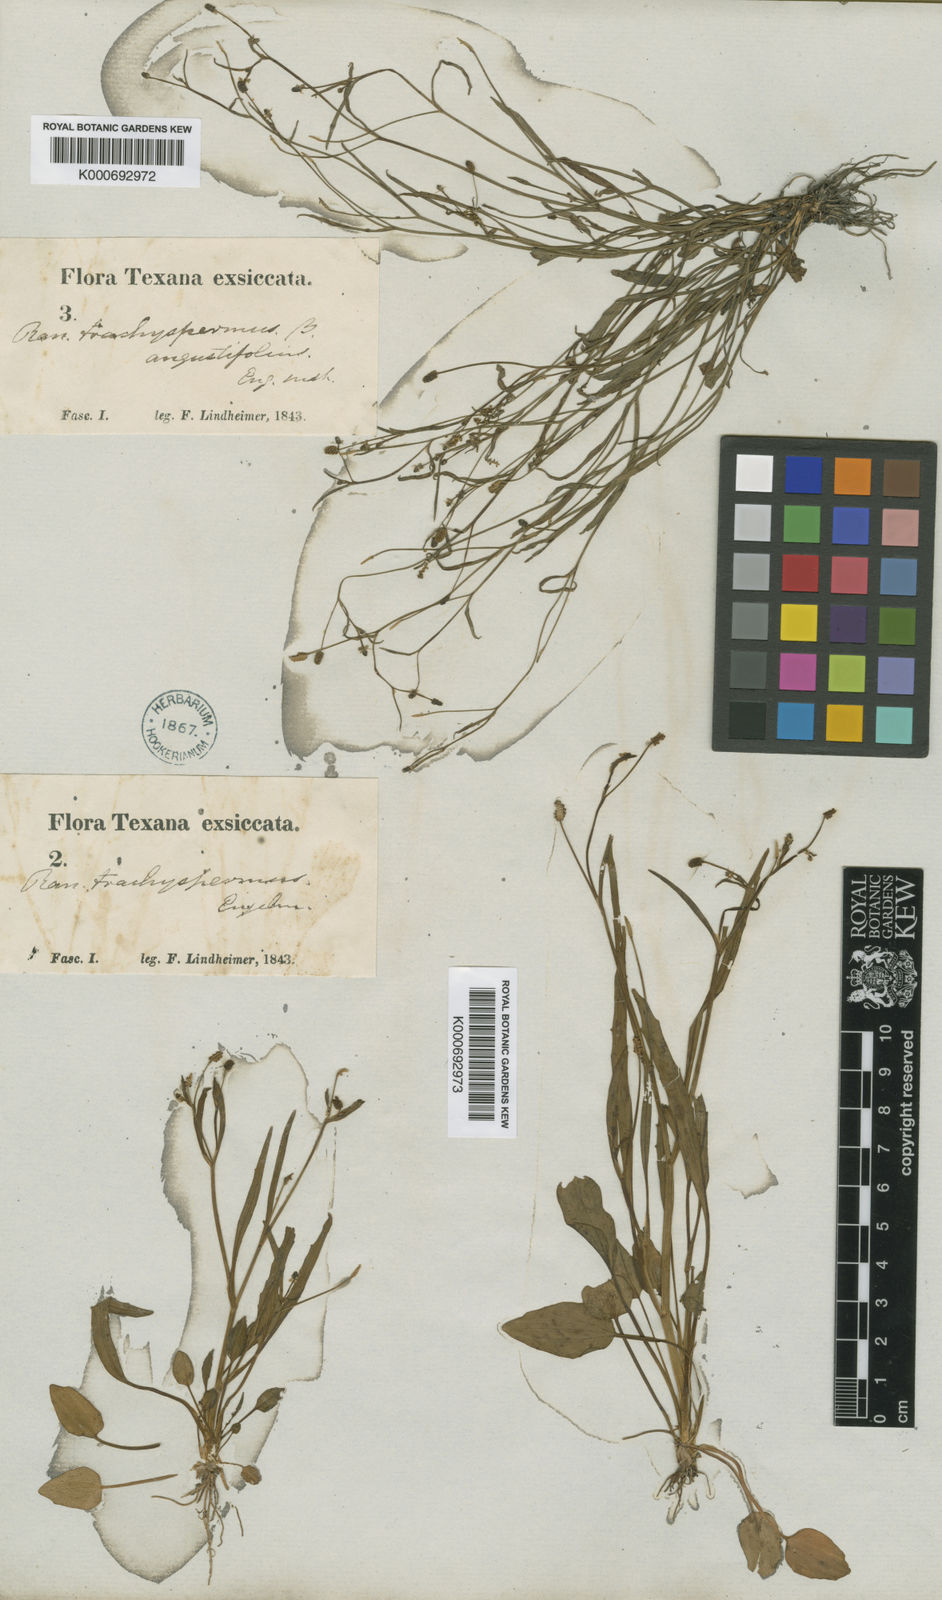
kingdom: Plantae
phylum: Tracheophyta
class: Magnoliopsida
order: Ranunculales
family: Ranunculaceae
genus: Ranunculus
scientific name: Ranunculus
